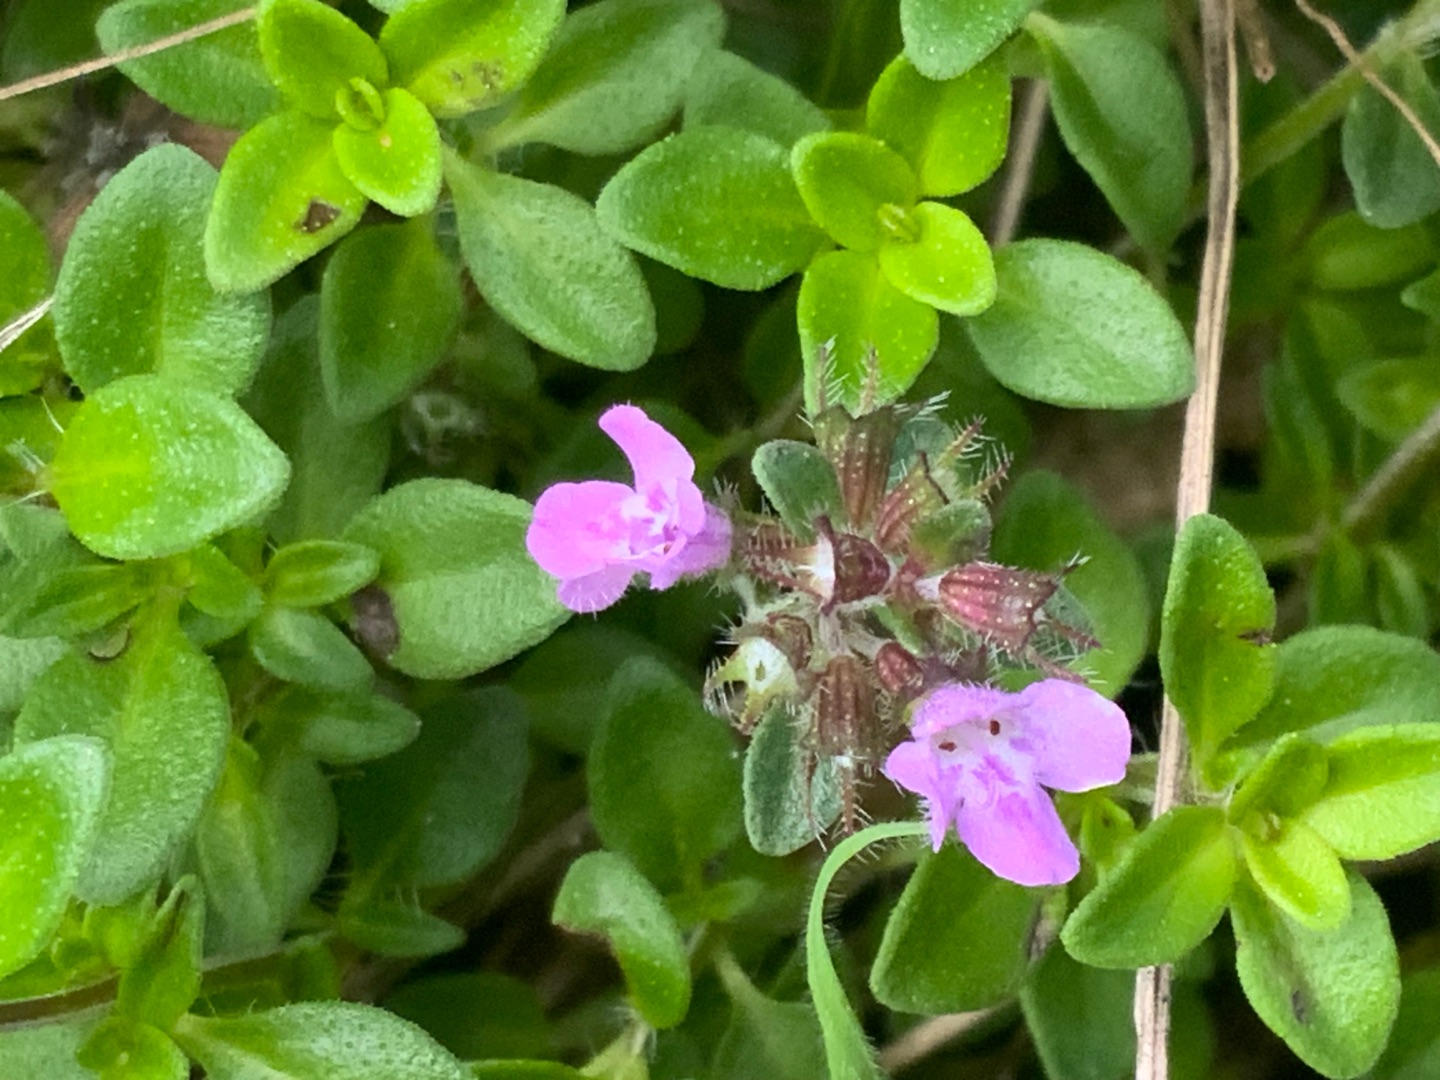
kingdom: Plantae
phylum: Tracheophyta
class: Magnoliopsida
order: Lamiales
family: Lamiaceae
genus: Thymus
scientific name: Thymus pulegioides
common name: Bredbladet timian
